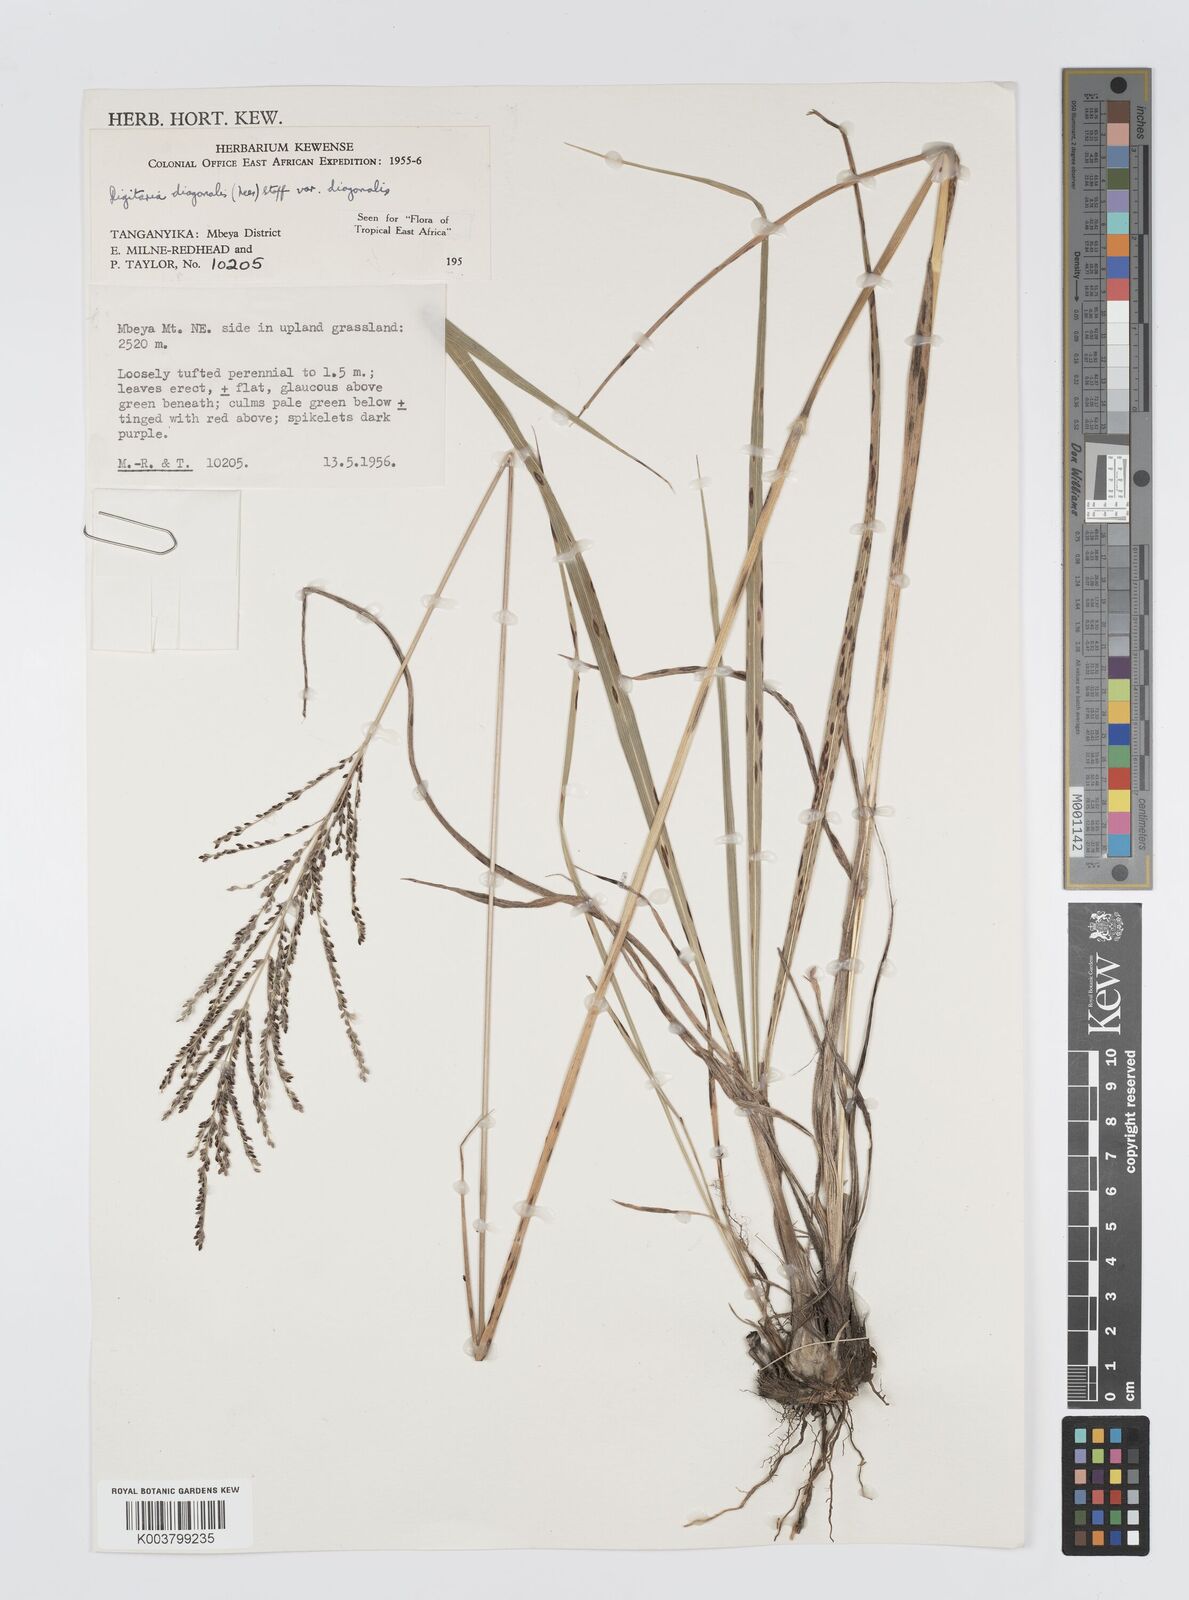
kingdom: Plantae
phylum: Tracheophyta
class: Liliopsida
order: Poales
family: Poaceae
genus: Digitaria
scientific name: Digitaria diagonalis
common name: Brown-seed finger grass
